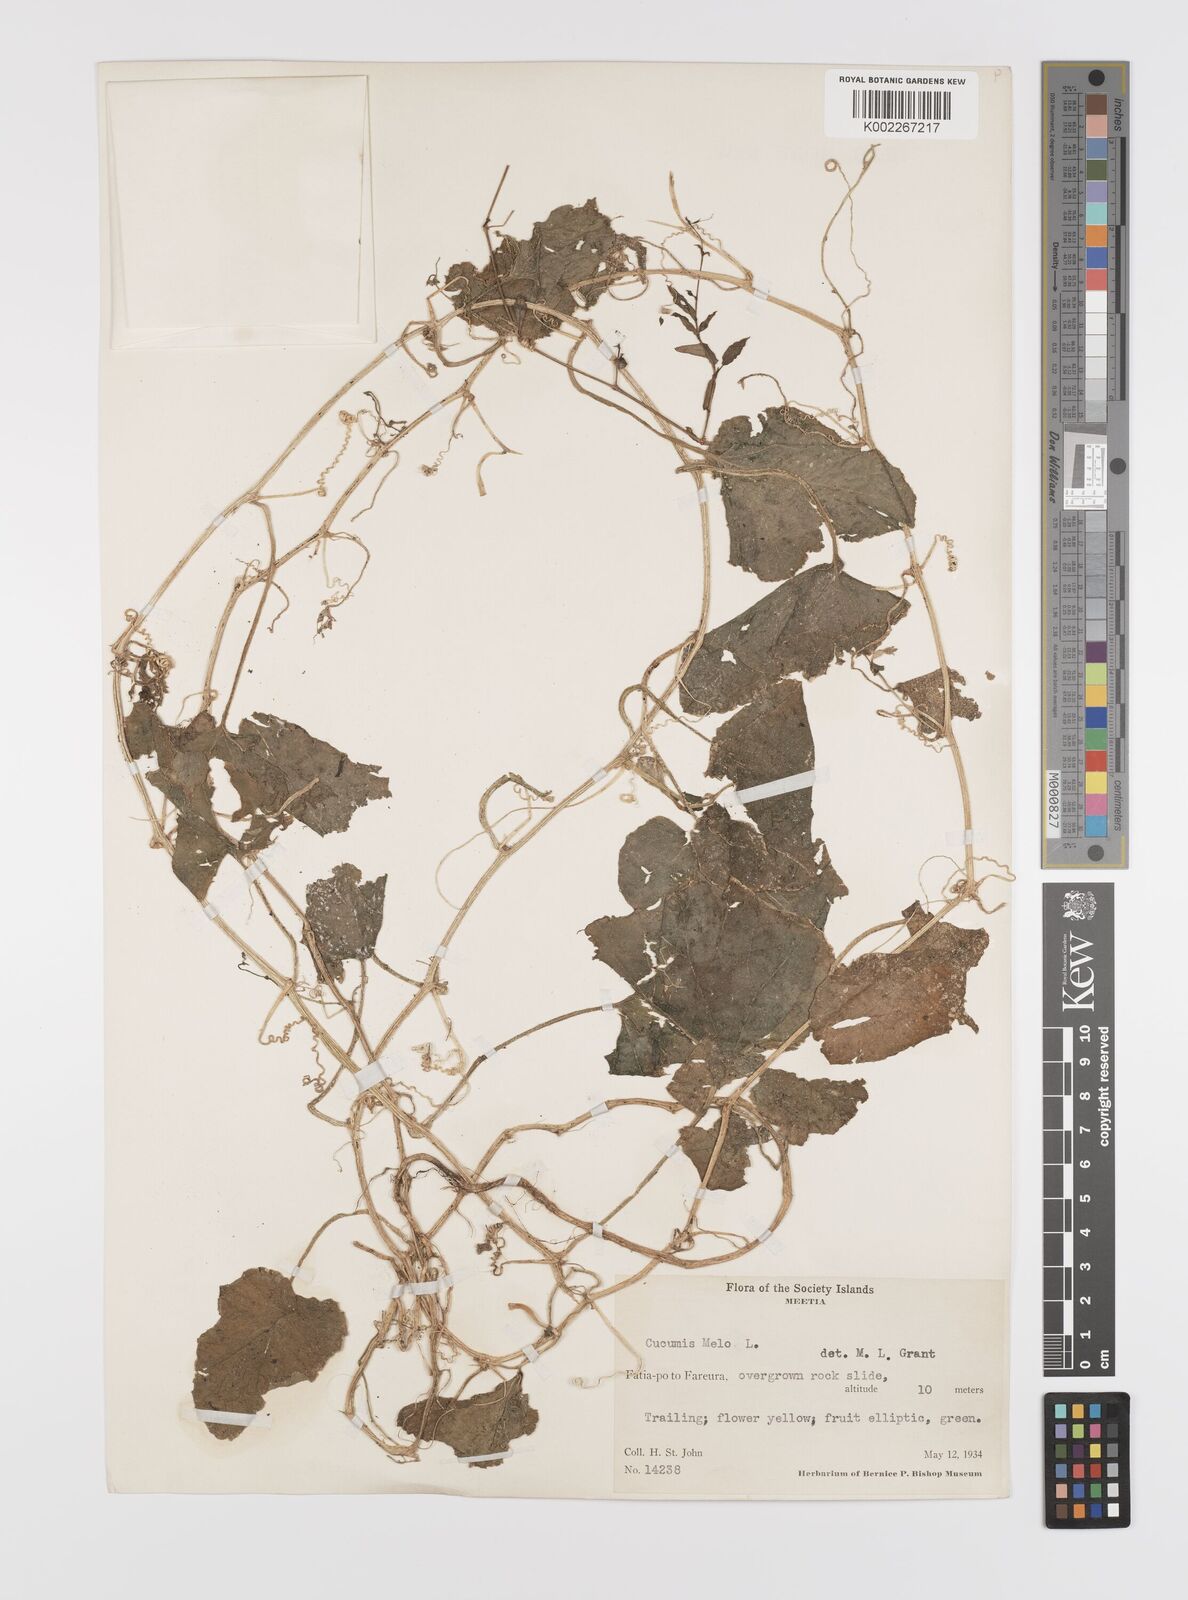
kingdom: Plantae
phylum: Tracheophyta
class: Magnoliopsida
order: Cucurbitales
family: Cucurbitaceae
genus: Cucumis
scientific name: Cucumis melo
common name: Melon
